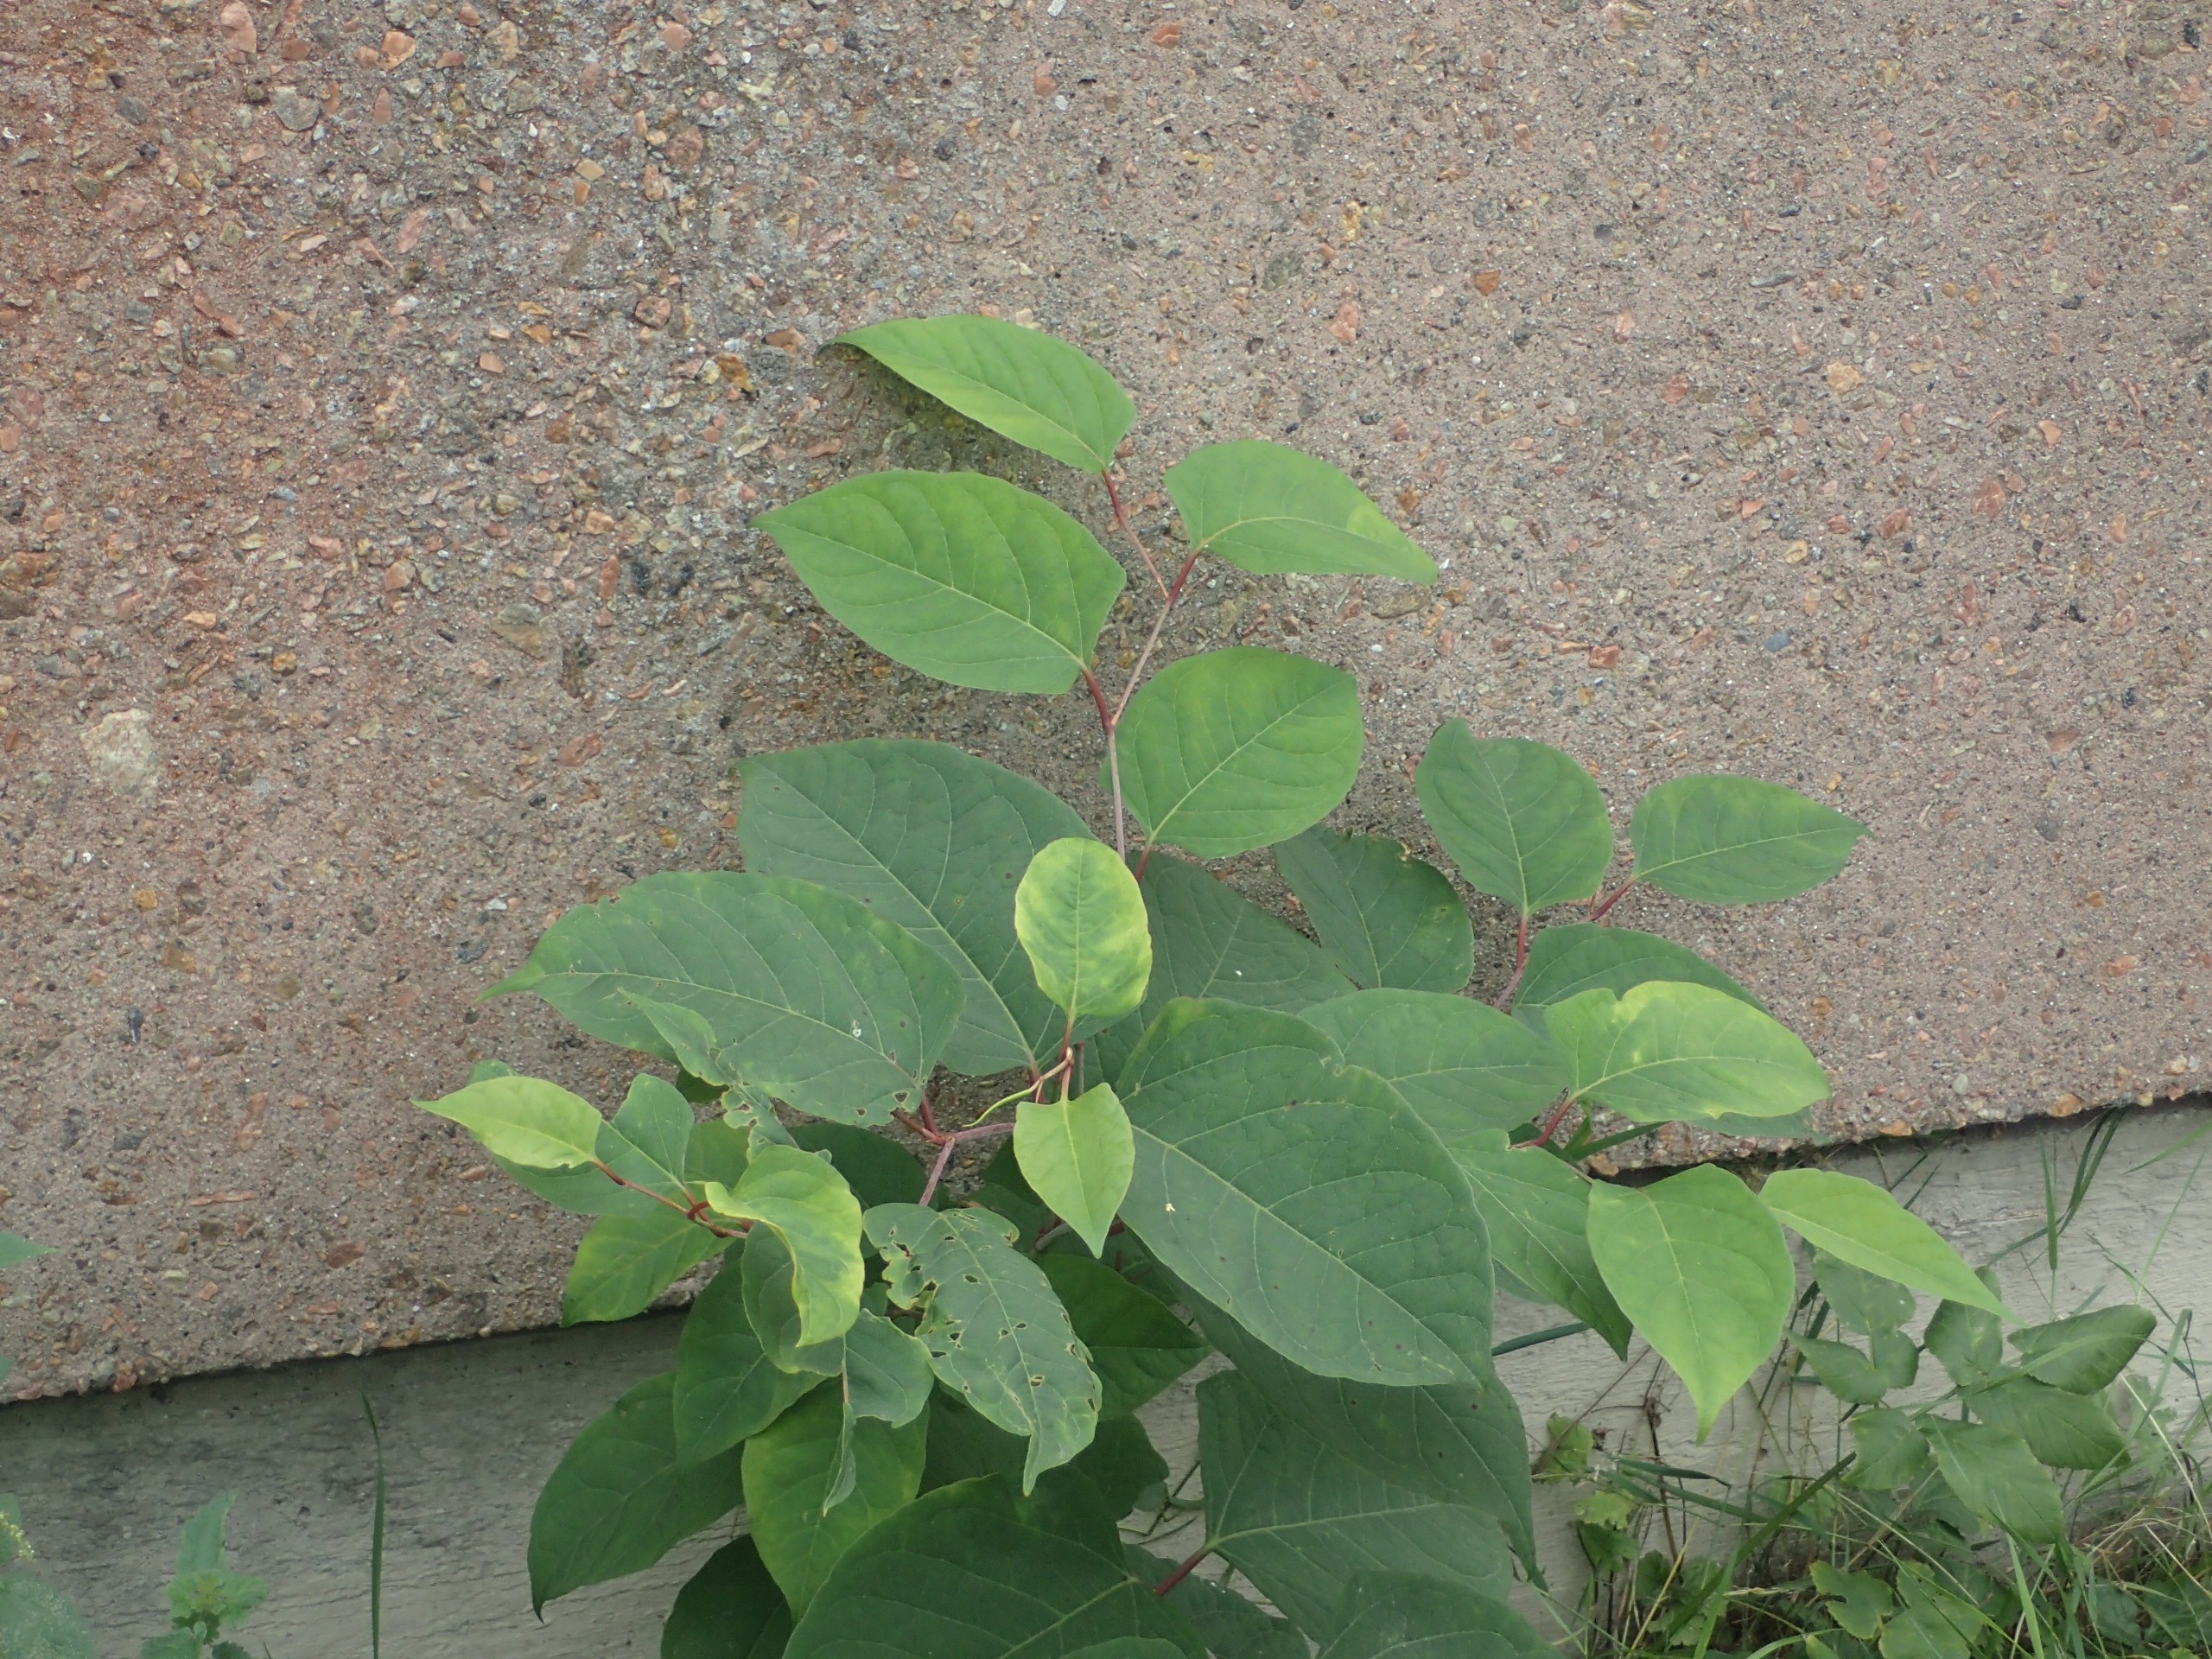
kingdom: Plantae
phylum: Tracheophyta
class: Magnoliopsida
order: Caryophyllales
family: Polygonaceae
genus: Reynoutria
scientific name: Reynoutria japonica
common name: Japan-pileurt
